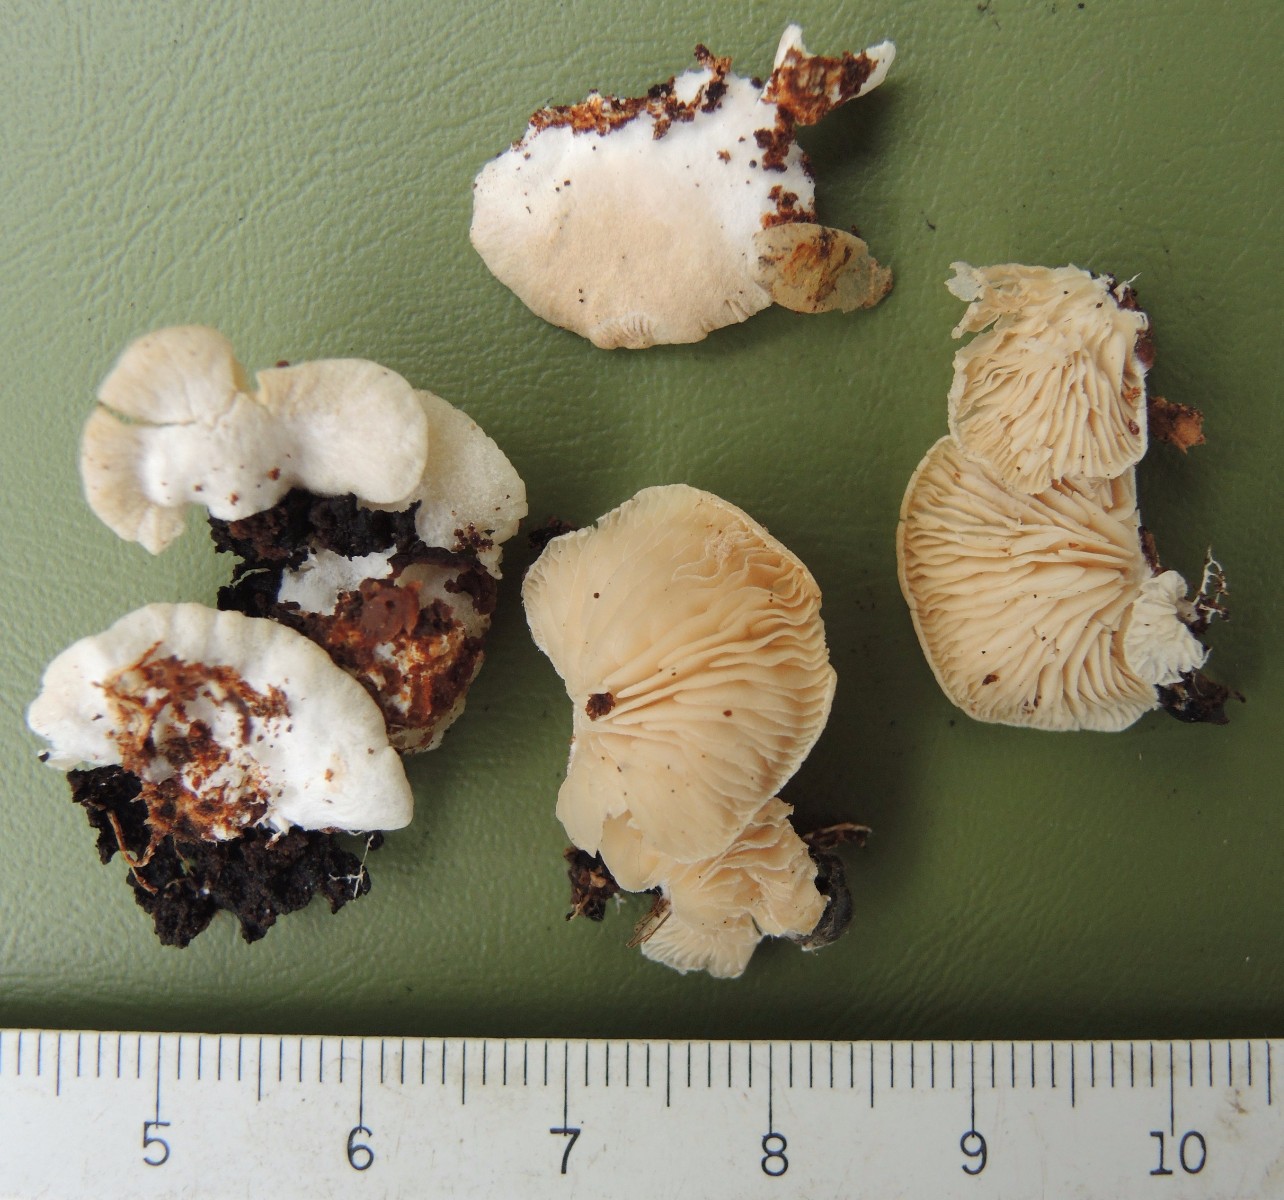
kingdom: Fungi
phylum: Basidiomycota
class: Agaricomycetes
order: Agaricales
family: Entolomataceae
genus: Clitopilus
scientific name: Clitopilus hobsonii
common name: Miller's oysterling
